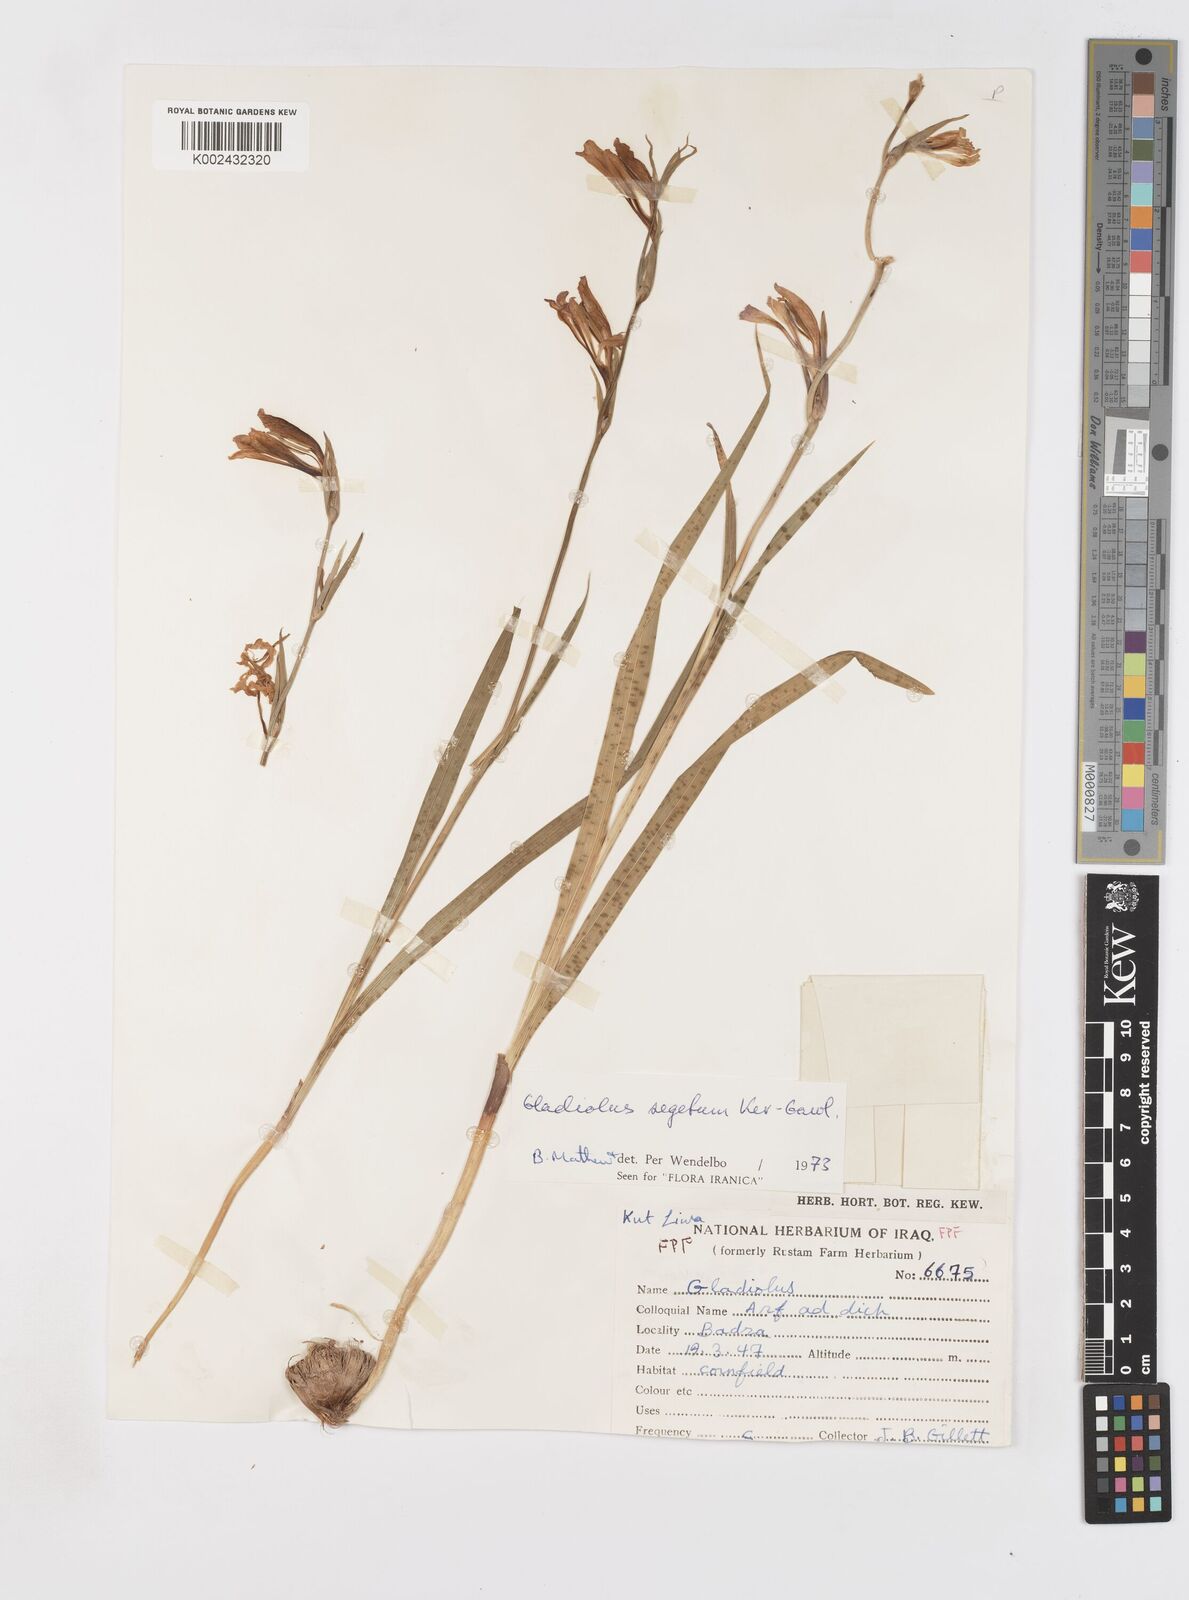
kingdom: Plantae
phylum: Tracheophyta
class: Liliopsida
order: Asparagales
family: Iridaceae
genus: Gladiolus
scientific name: Gladiolus italicus
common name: Field gladiolus
